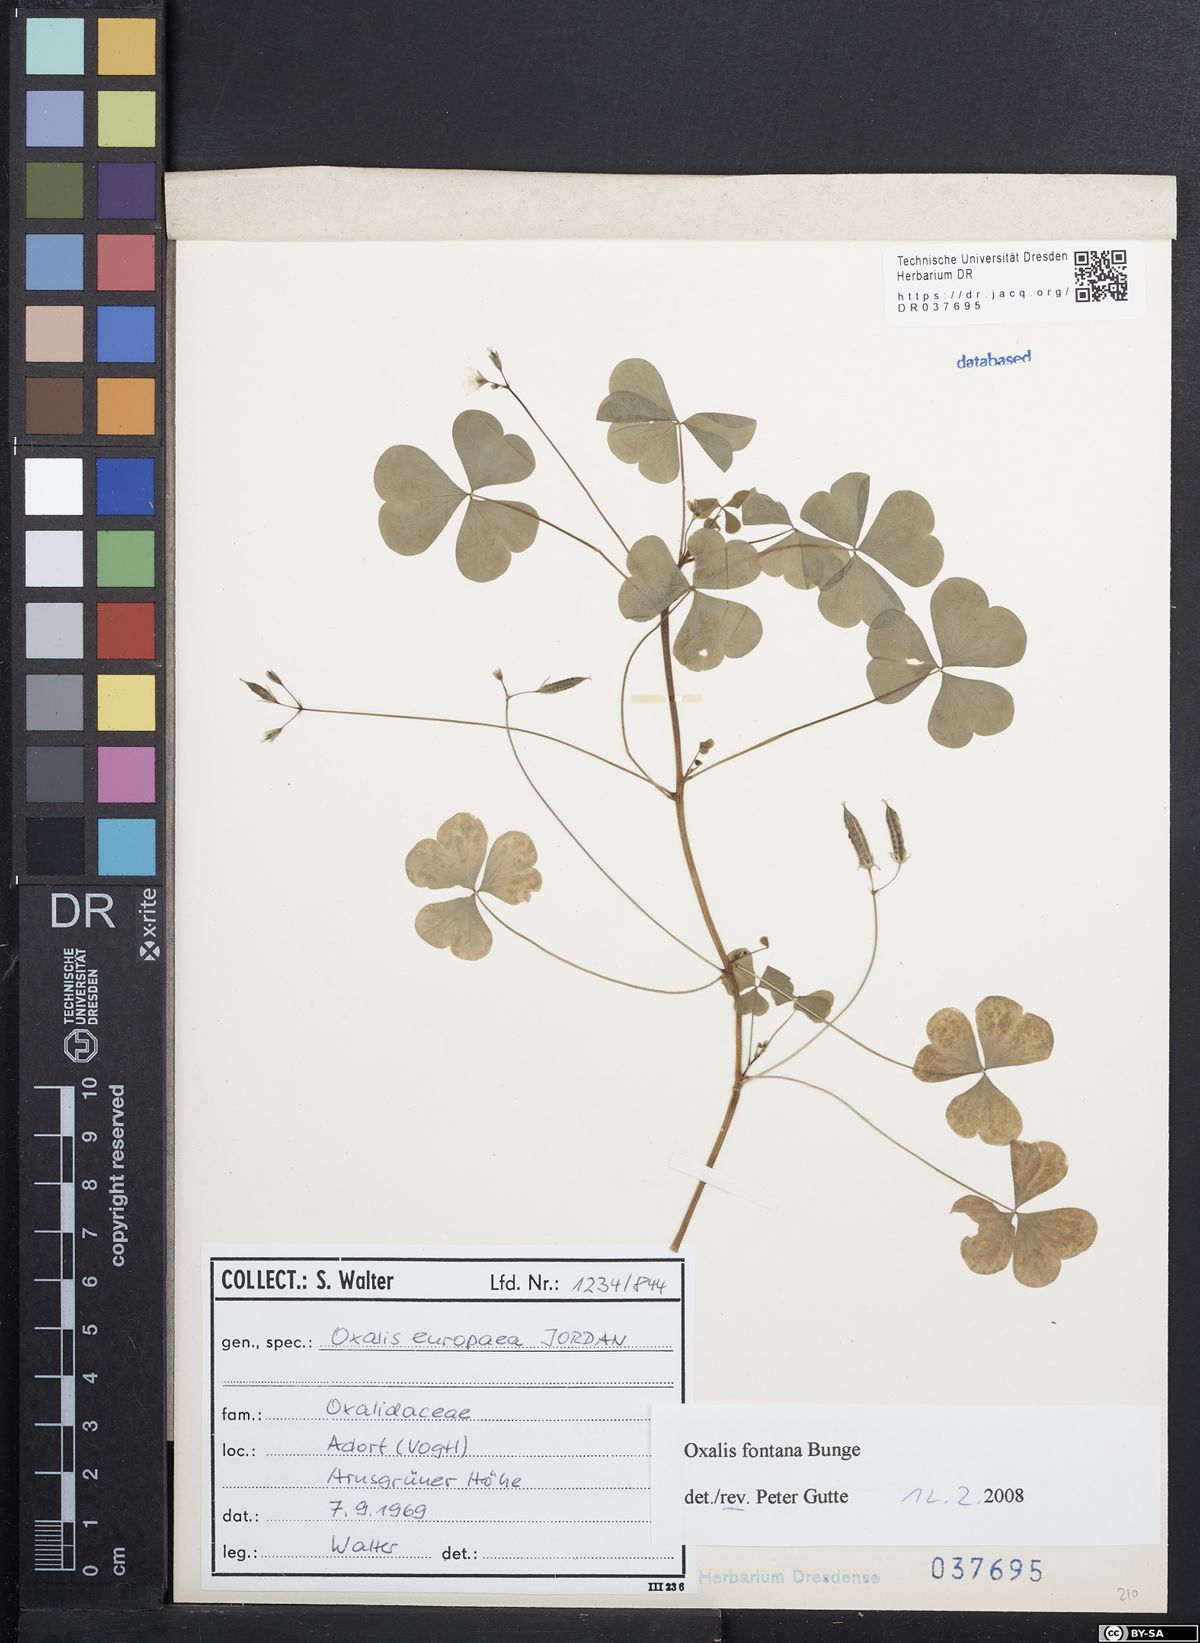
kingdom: Plantae
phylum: Tracheophyta
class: Magnoliopsida
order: Oxalidales
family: Oxalidaceae
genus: Oxalis
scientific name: Oxalis stricta
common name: Upright yellow-sorrel
